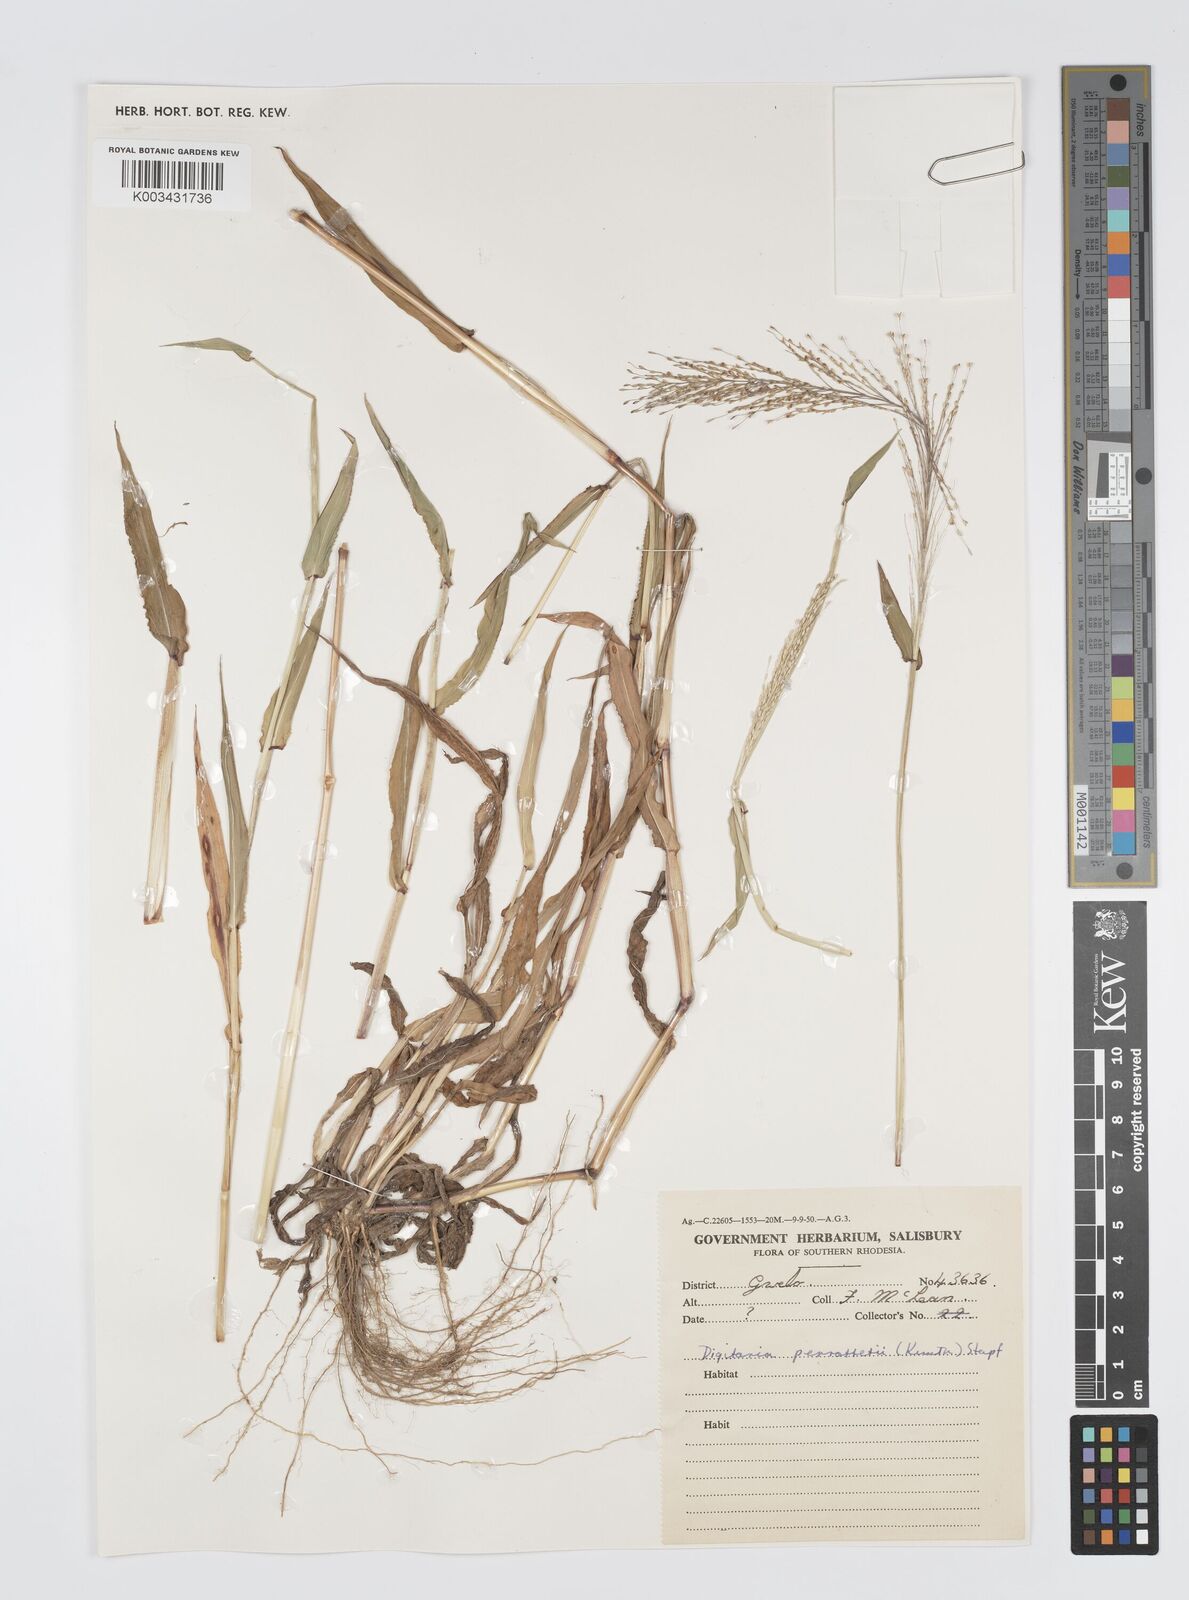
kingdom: Plantae
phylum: Tracheophyta
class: Liliopsida
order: Poales
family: Poaceae
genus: Digitaria
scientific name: Digitaria perrottetii
